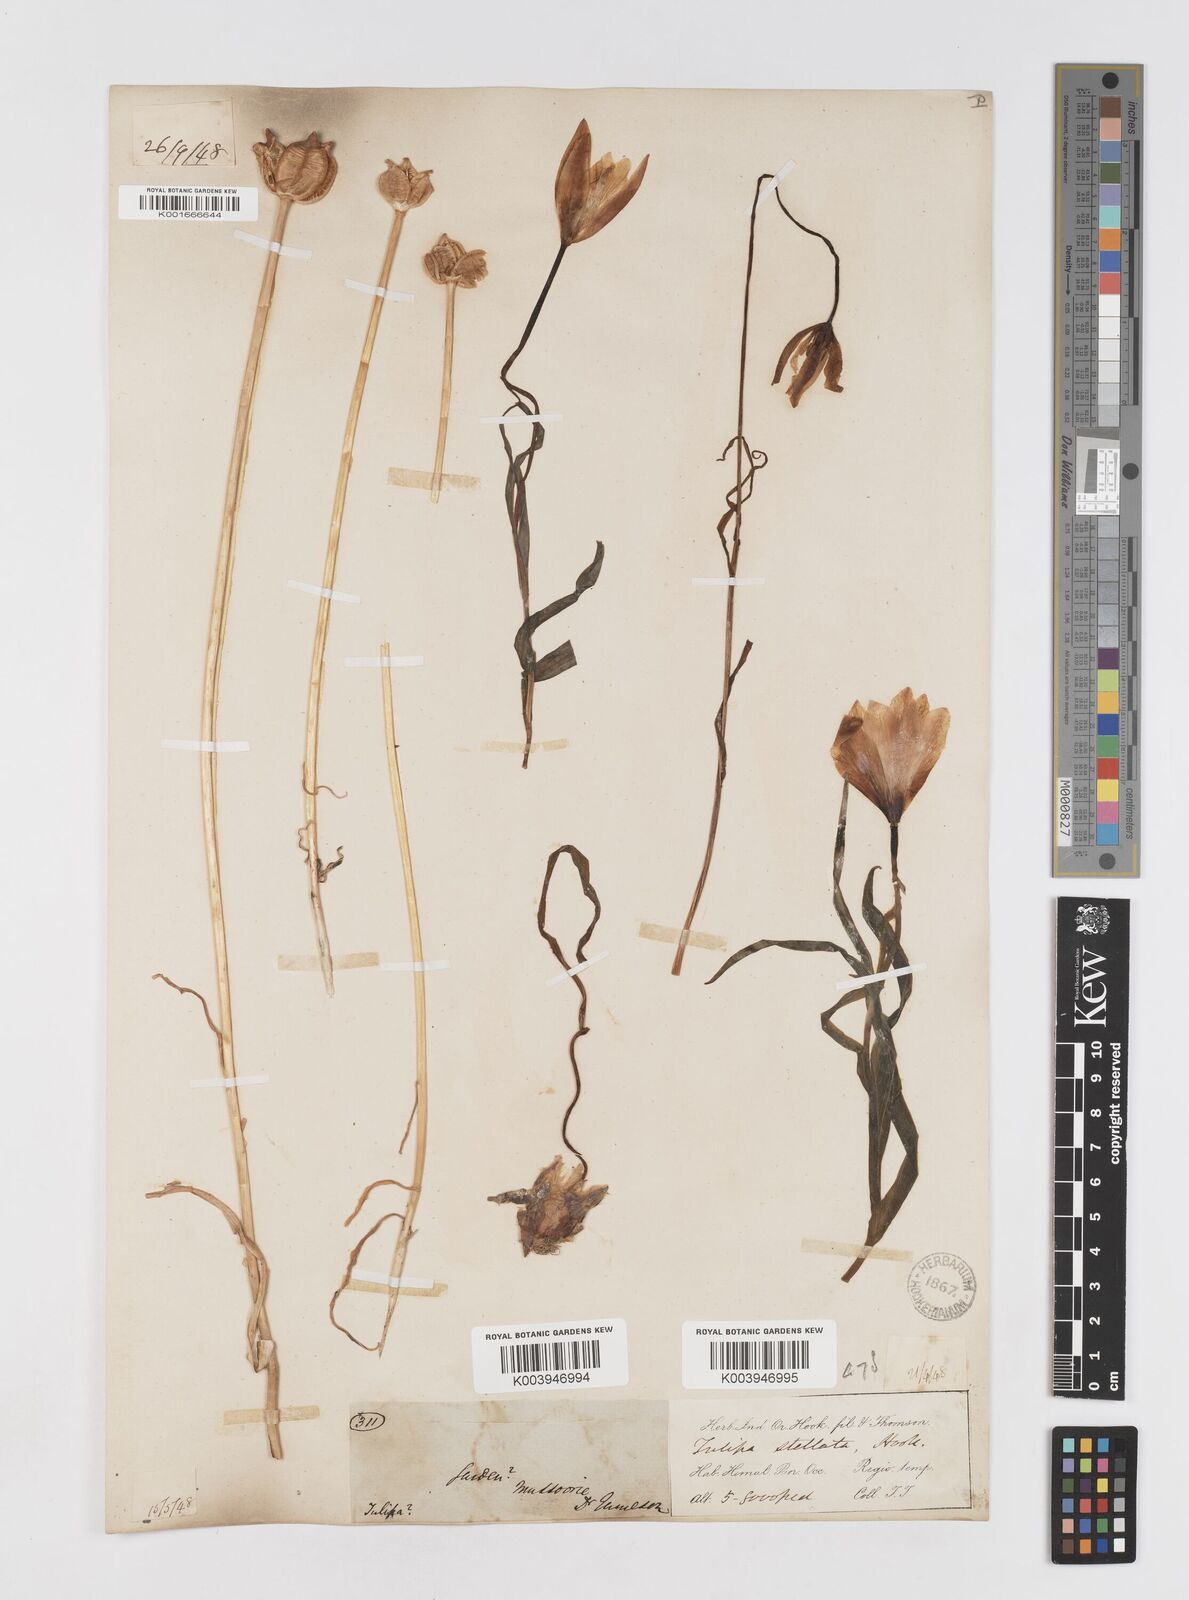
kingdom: Plantae
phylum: Tracheophyta
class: Liliopsida
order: Liliales
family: Liliaceae
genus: Tulipa
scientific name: Tulipa clusiana
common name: Lady tulip
